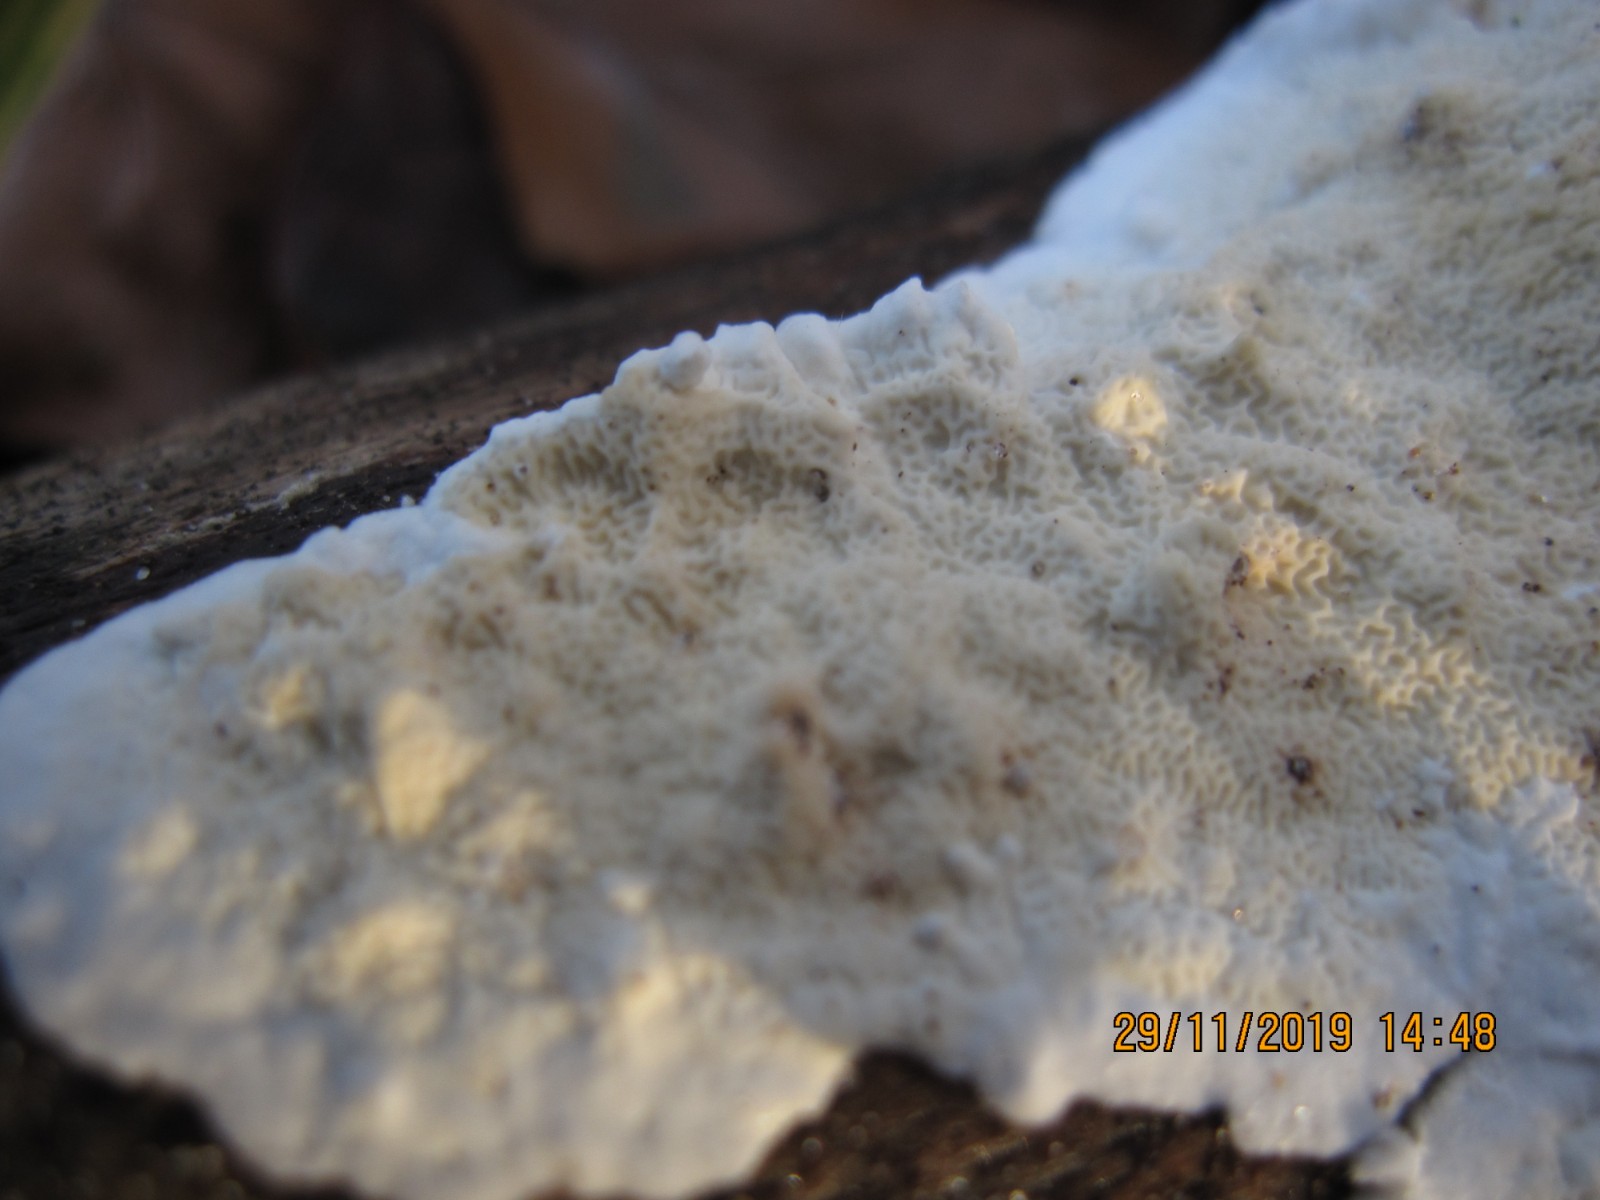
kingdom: Fungi
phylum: Basidiomycota
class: Agaricomycetes
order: Polyporales
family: Irpicaceae
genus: Byssomerulius
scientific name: Byssomerulius corium
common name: læder-åresvamp
